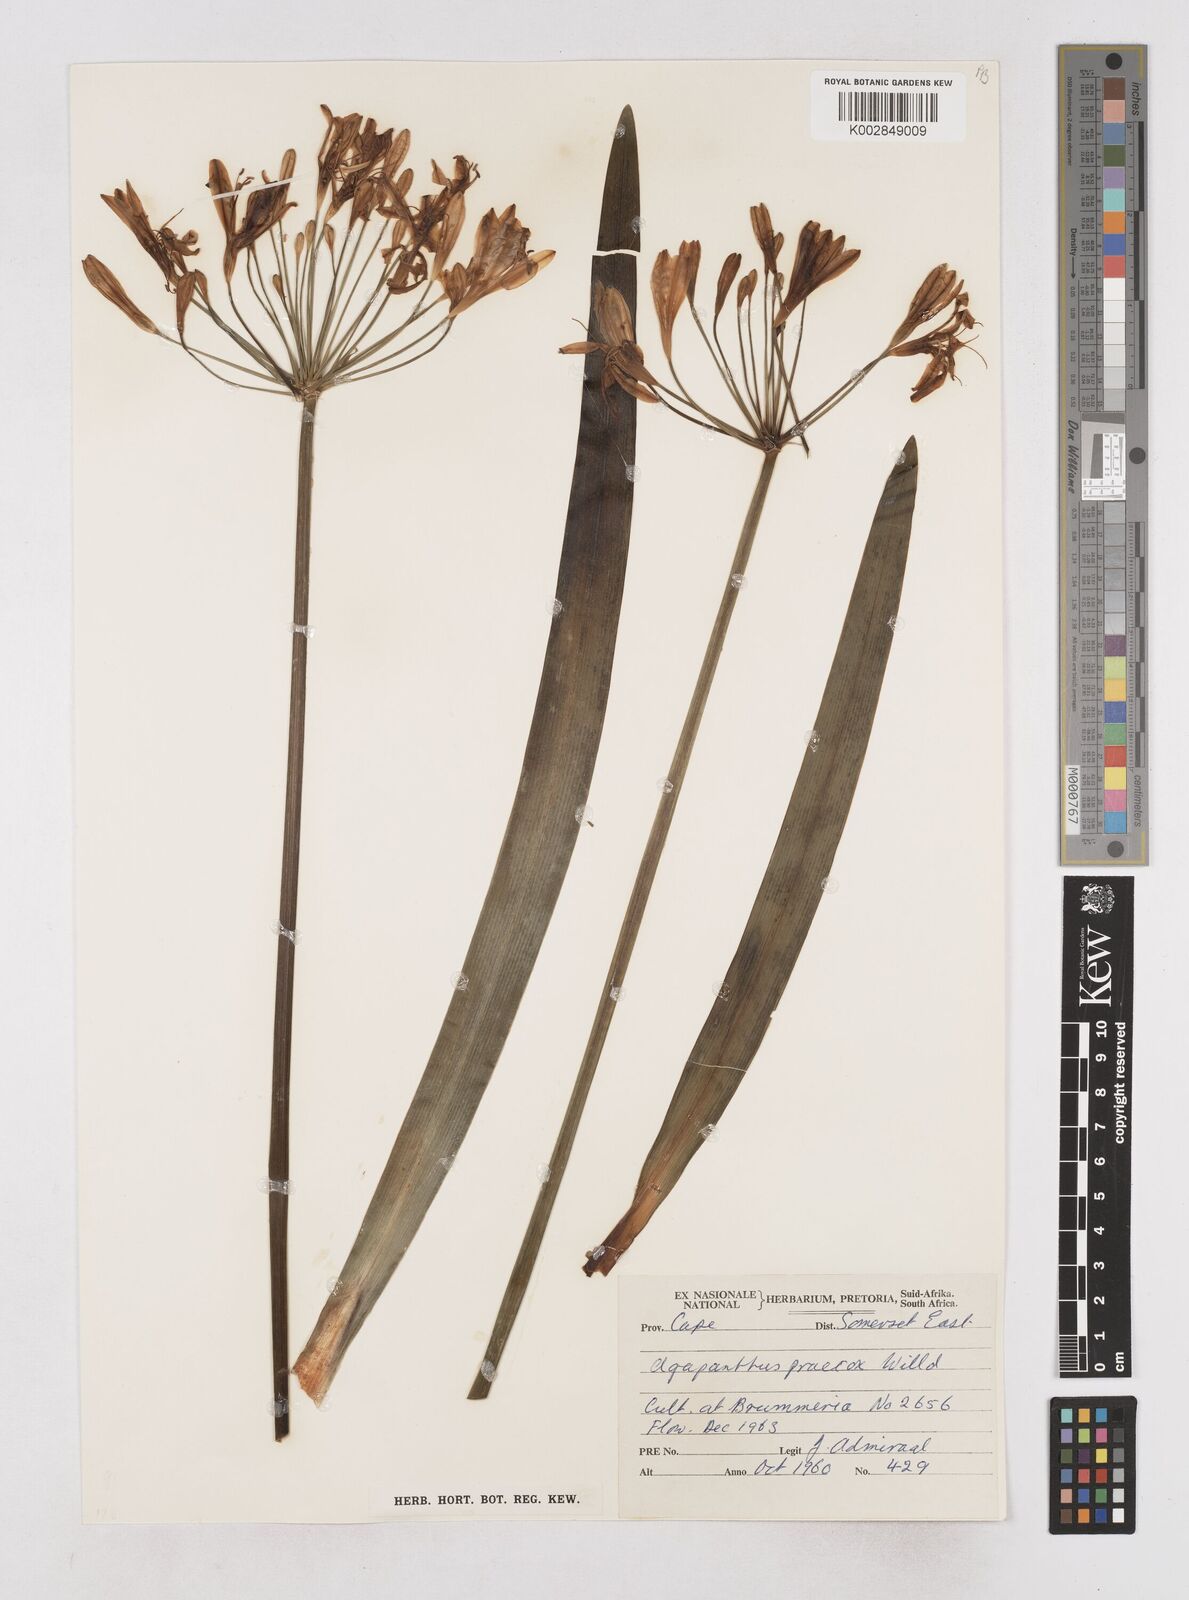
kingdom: Plantae
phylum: Tracheophyta
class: Liliopsida
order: Asparagales
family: Amaryllidaceae
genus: Agapanthus
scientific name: Agapanthus africanus
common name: Lily-of-the-nile
